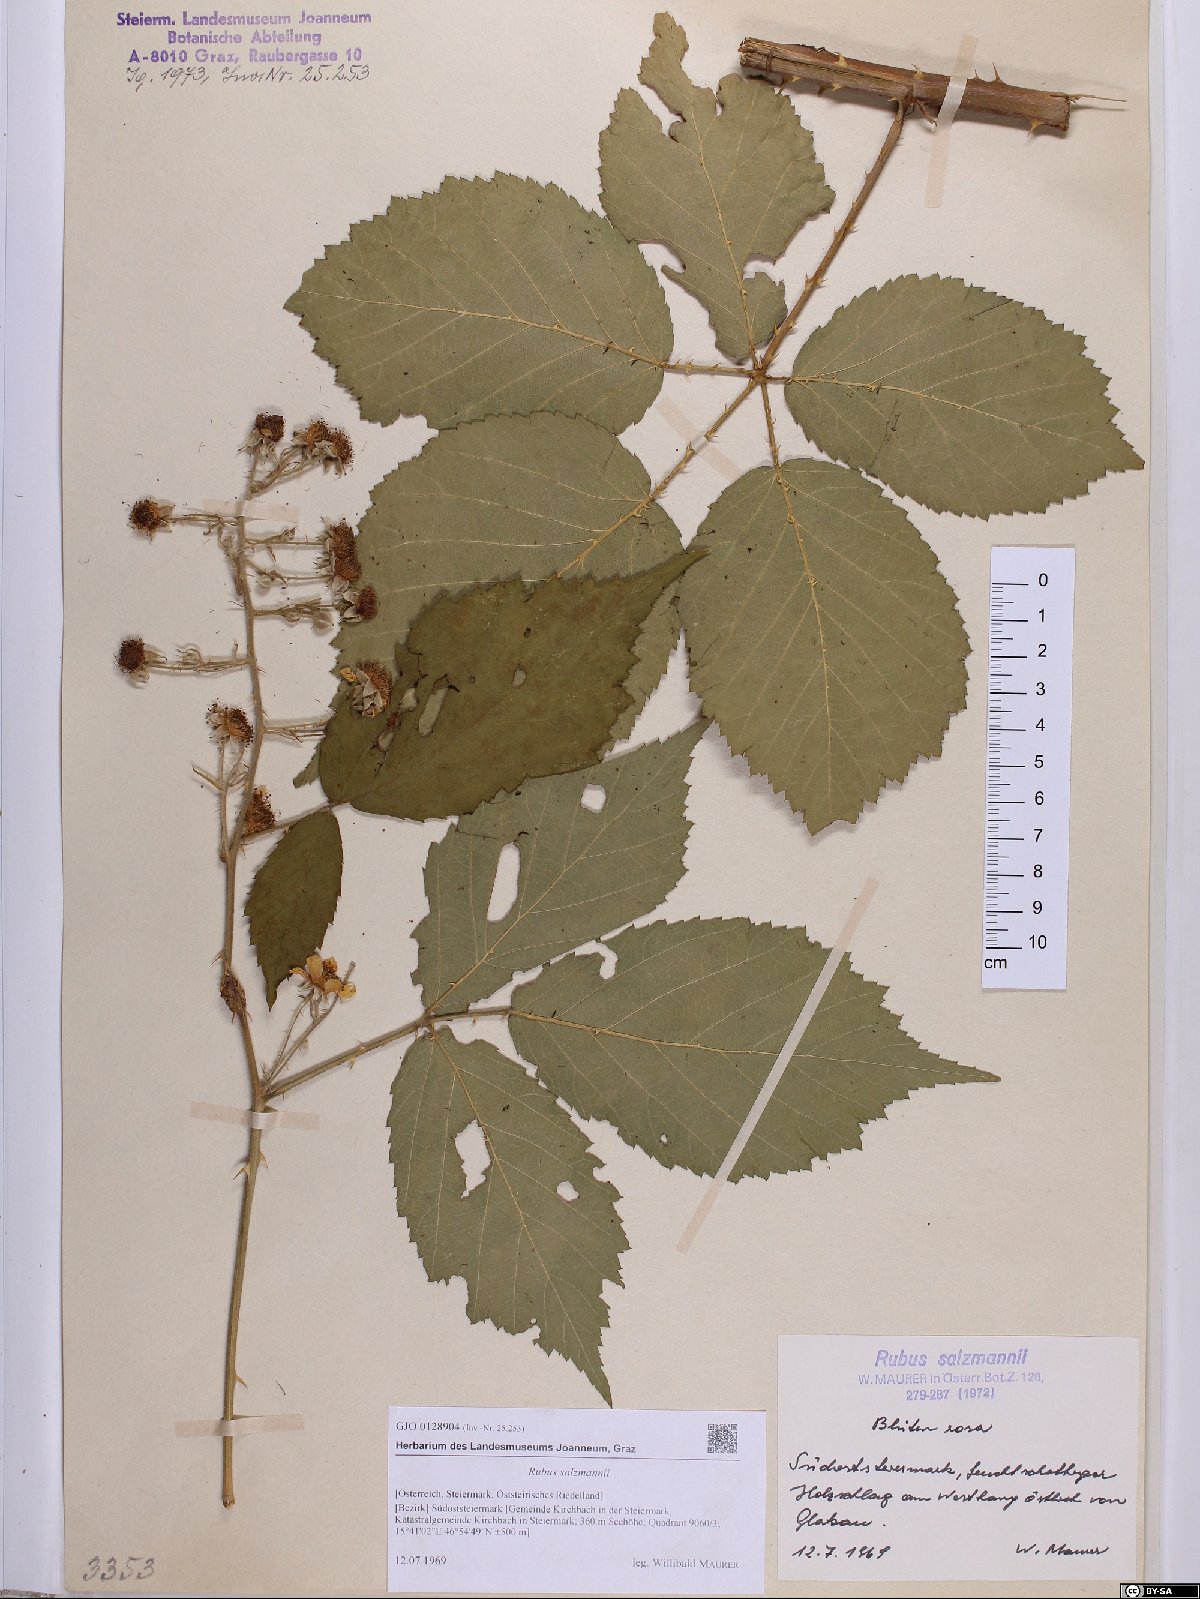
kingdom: Plantae
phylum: Tracheophyta
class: Magnoliopsida
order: Rosales
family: Rosaceae
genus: Rubus
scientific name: Rubus salzmannii
